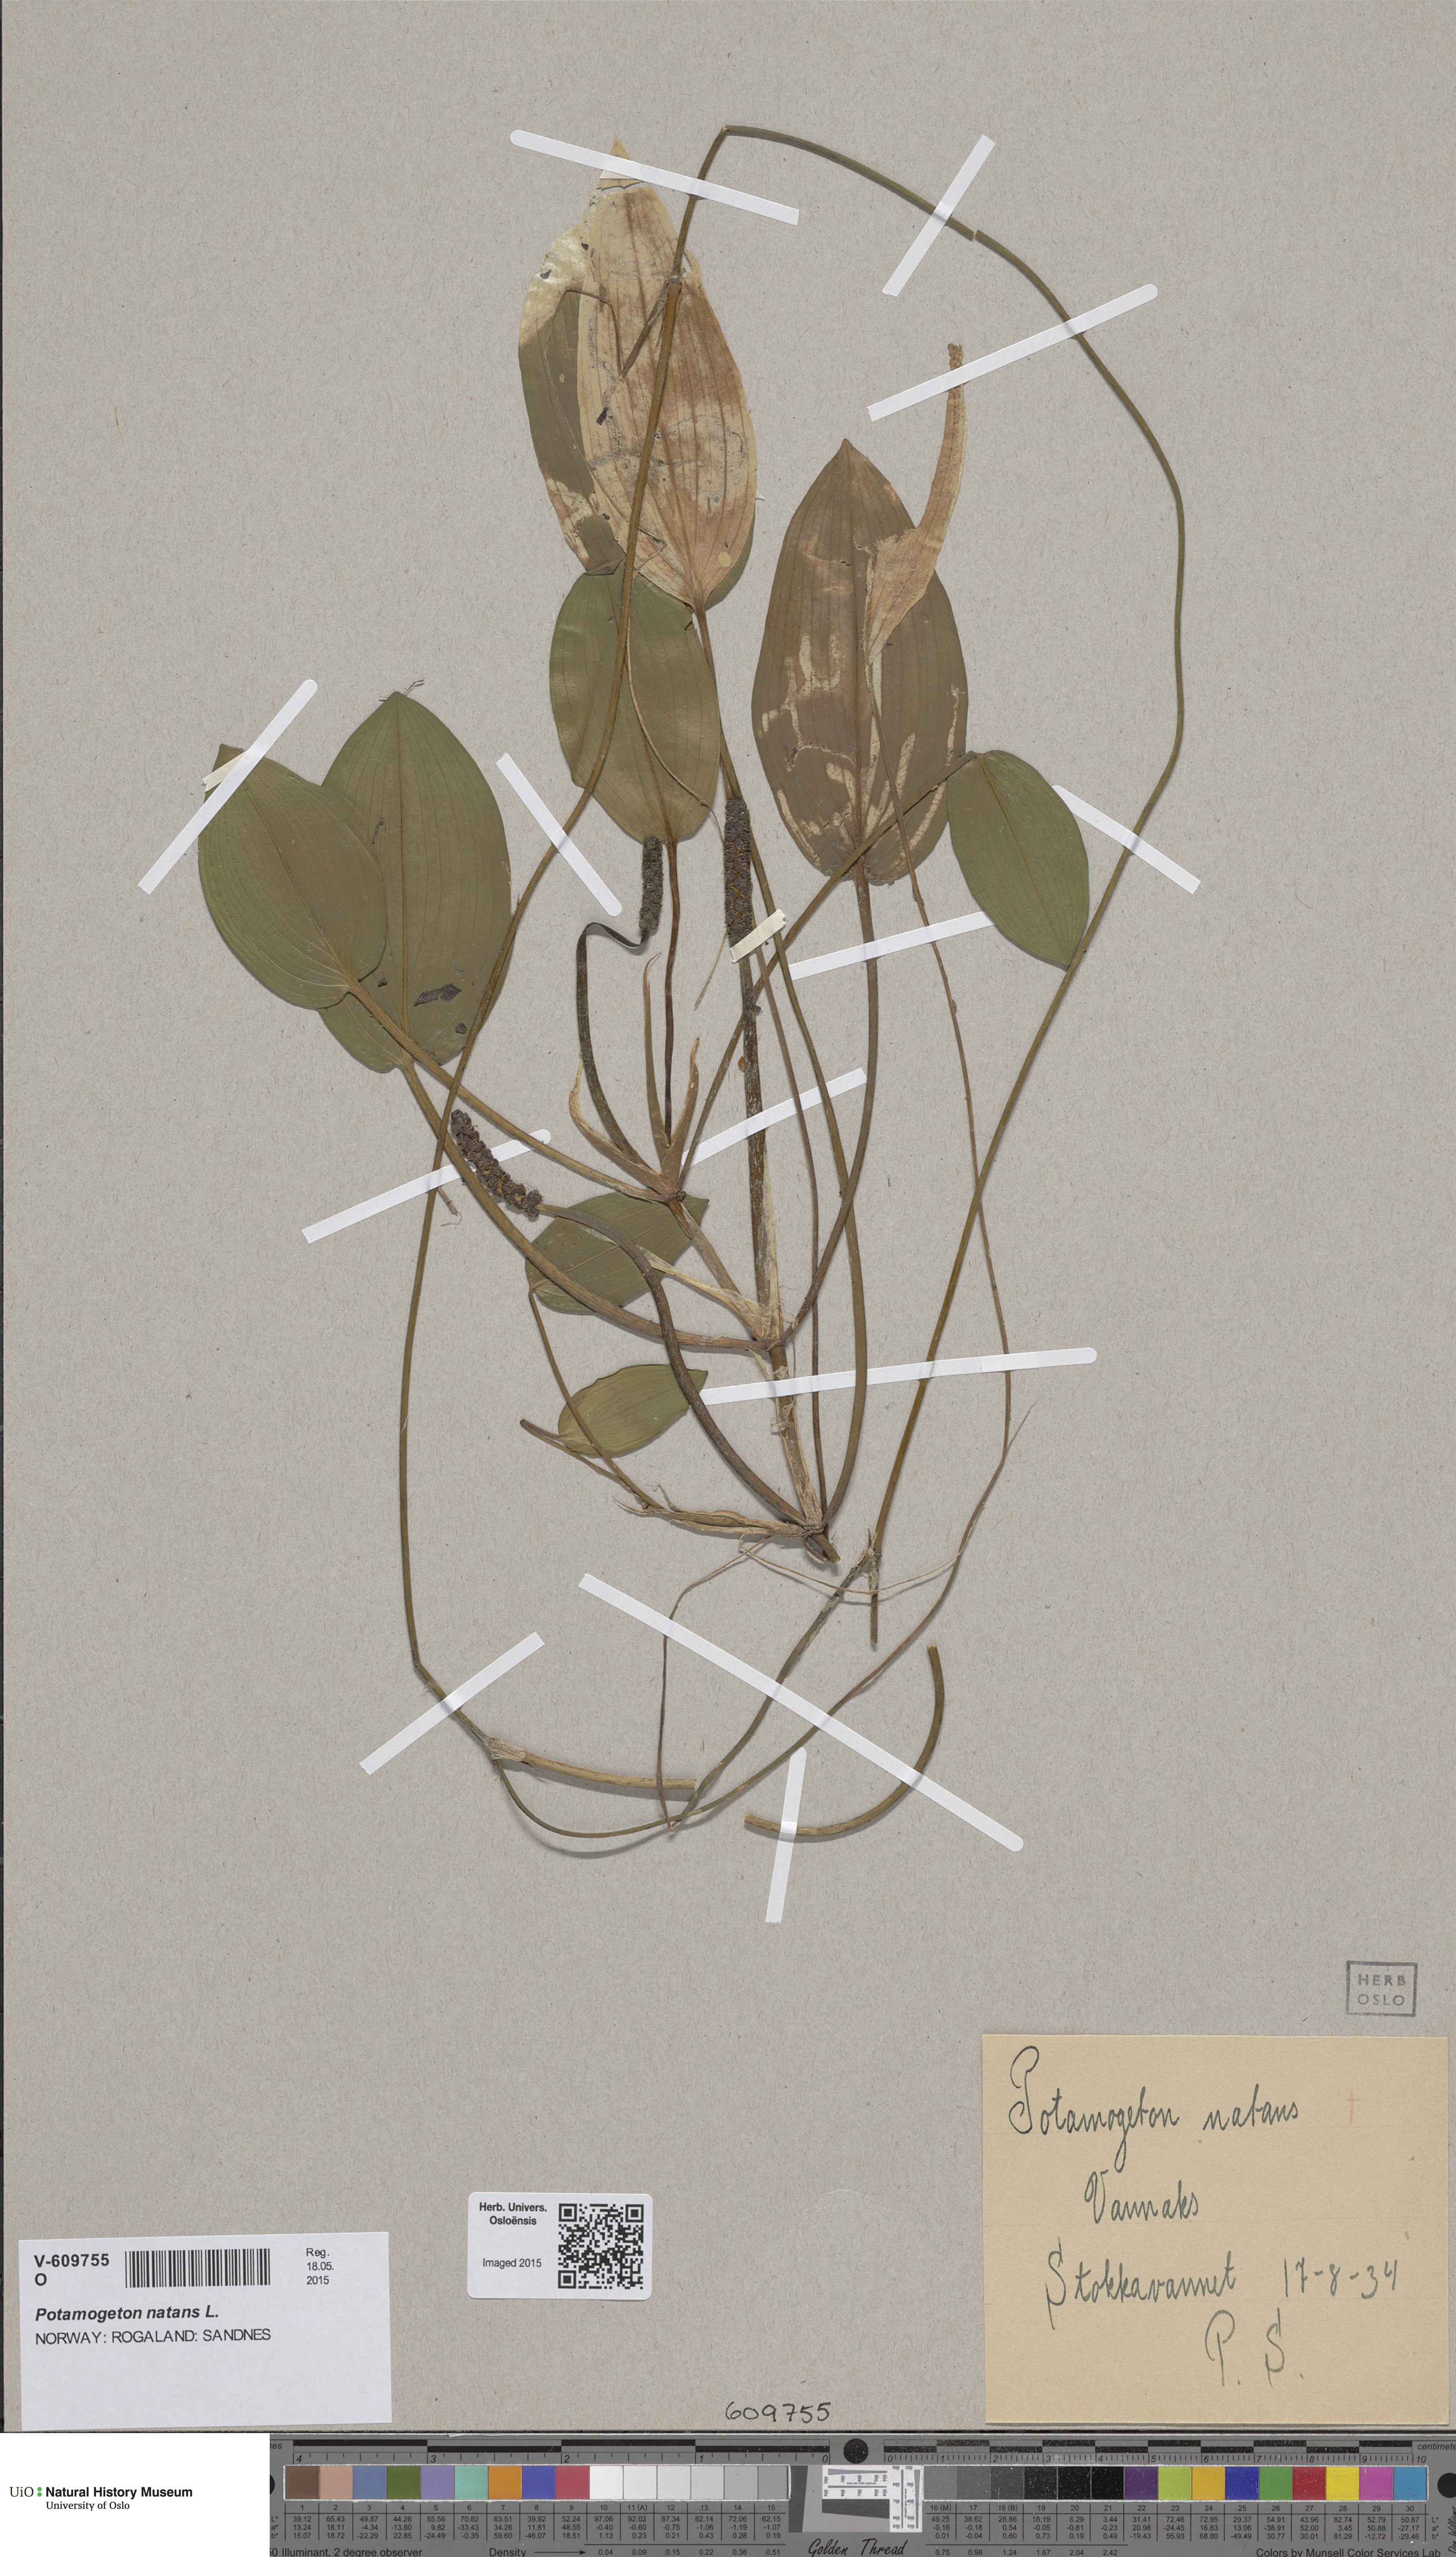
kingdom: Plantae
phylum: Tracheophyta
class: Liliopsida
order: Alismatales
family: Potamogetonaceae
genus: Potamogeton
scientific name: Potamogeton natans
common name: Broad-leaved pondweed
